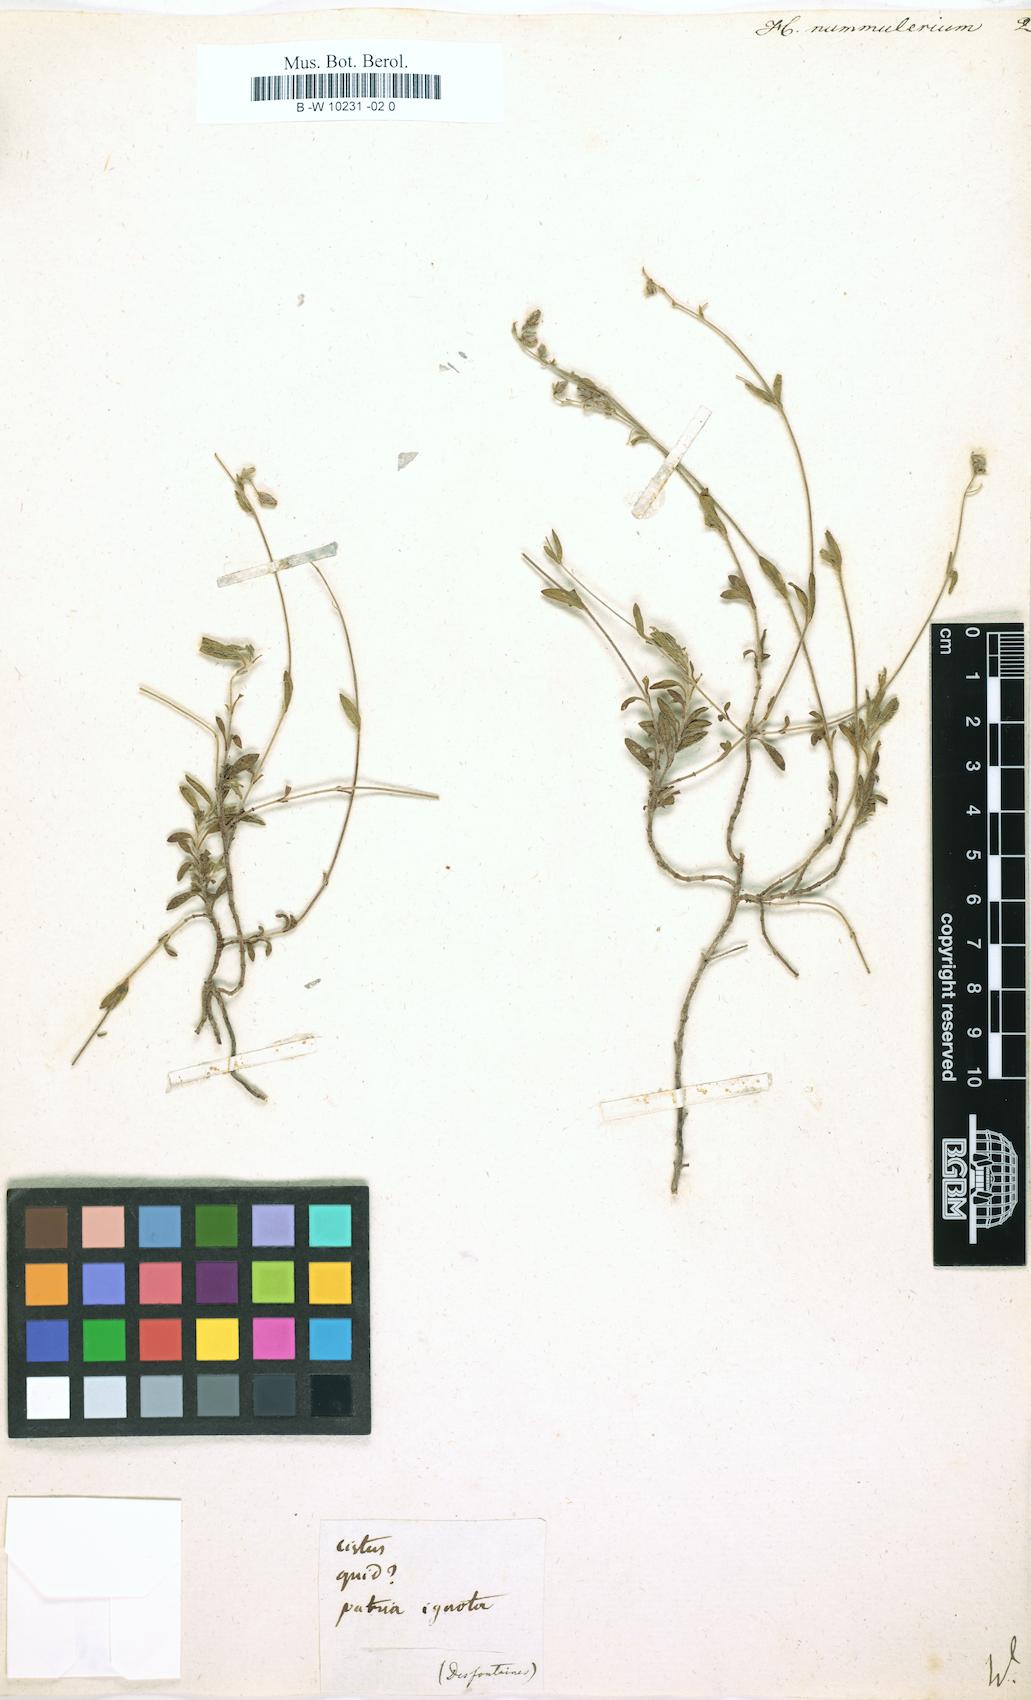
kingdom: Plantae
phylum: Tracheophyta
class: Magnoliopsida
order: Malvales
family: Cistaceae
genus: Helianthemum
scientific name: Helianthemum nummularium
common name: Common rock-rose
